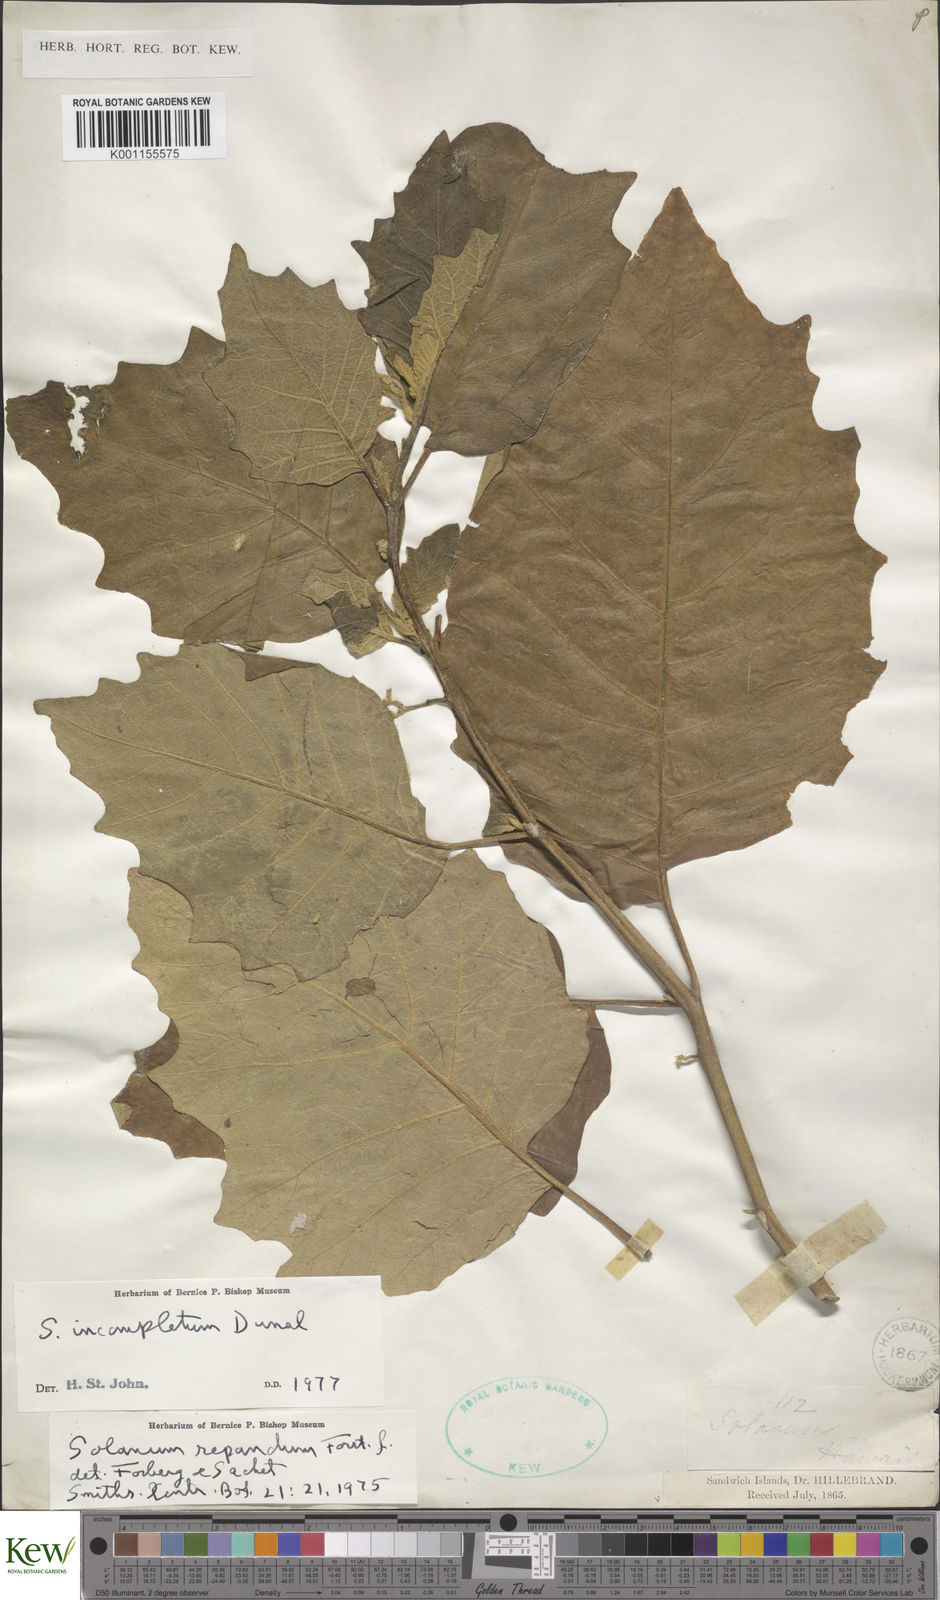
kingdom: Plantae
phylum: Tracheophyta
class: Magnoliopsida
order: Solanales
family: Solanaceae
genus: Solanum
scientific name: Solanum incompletum
